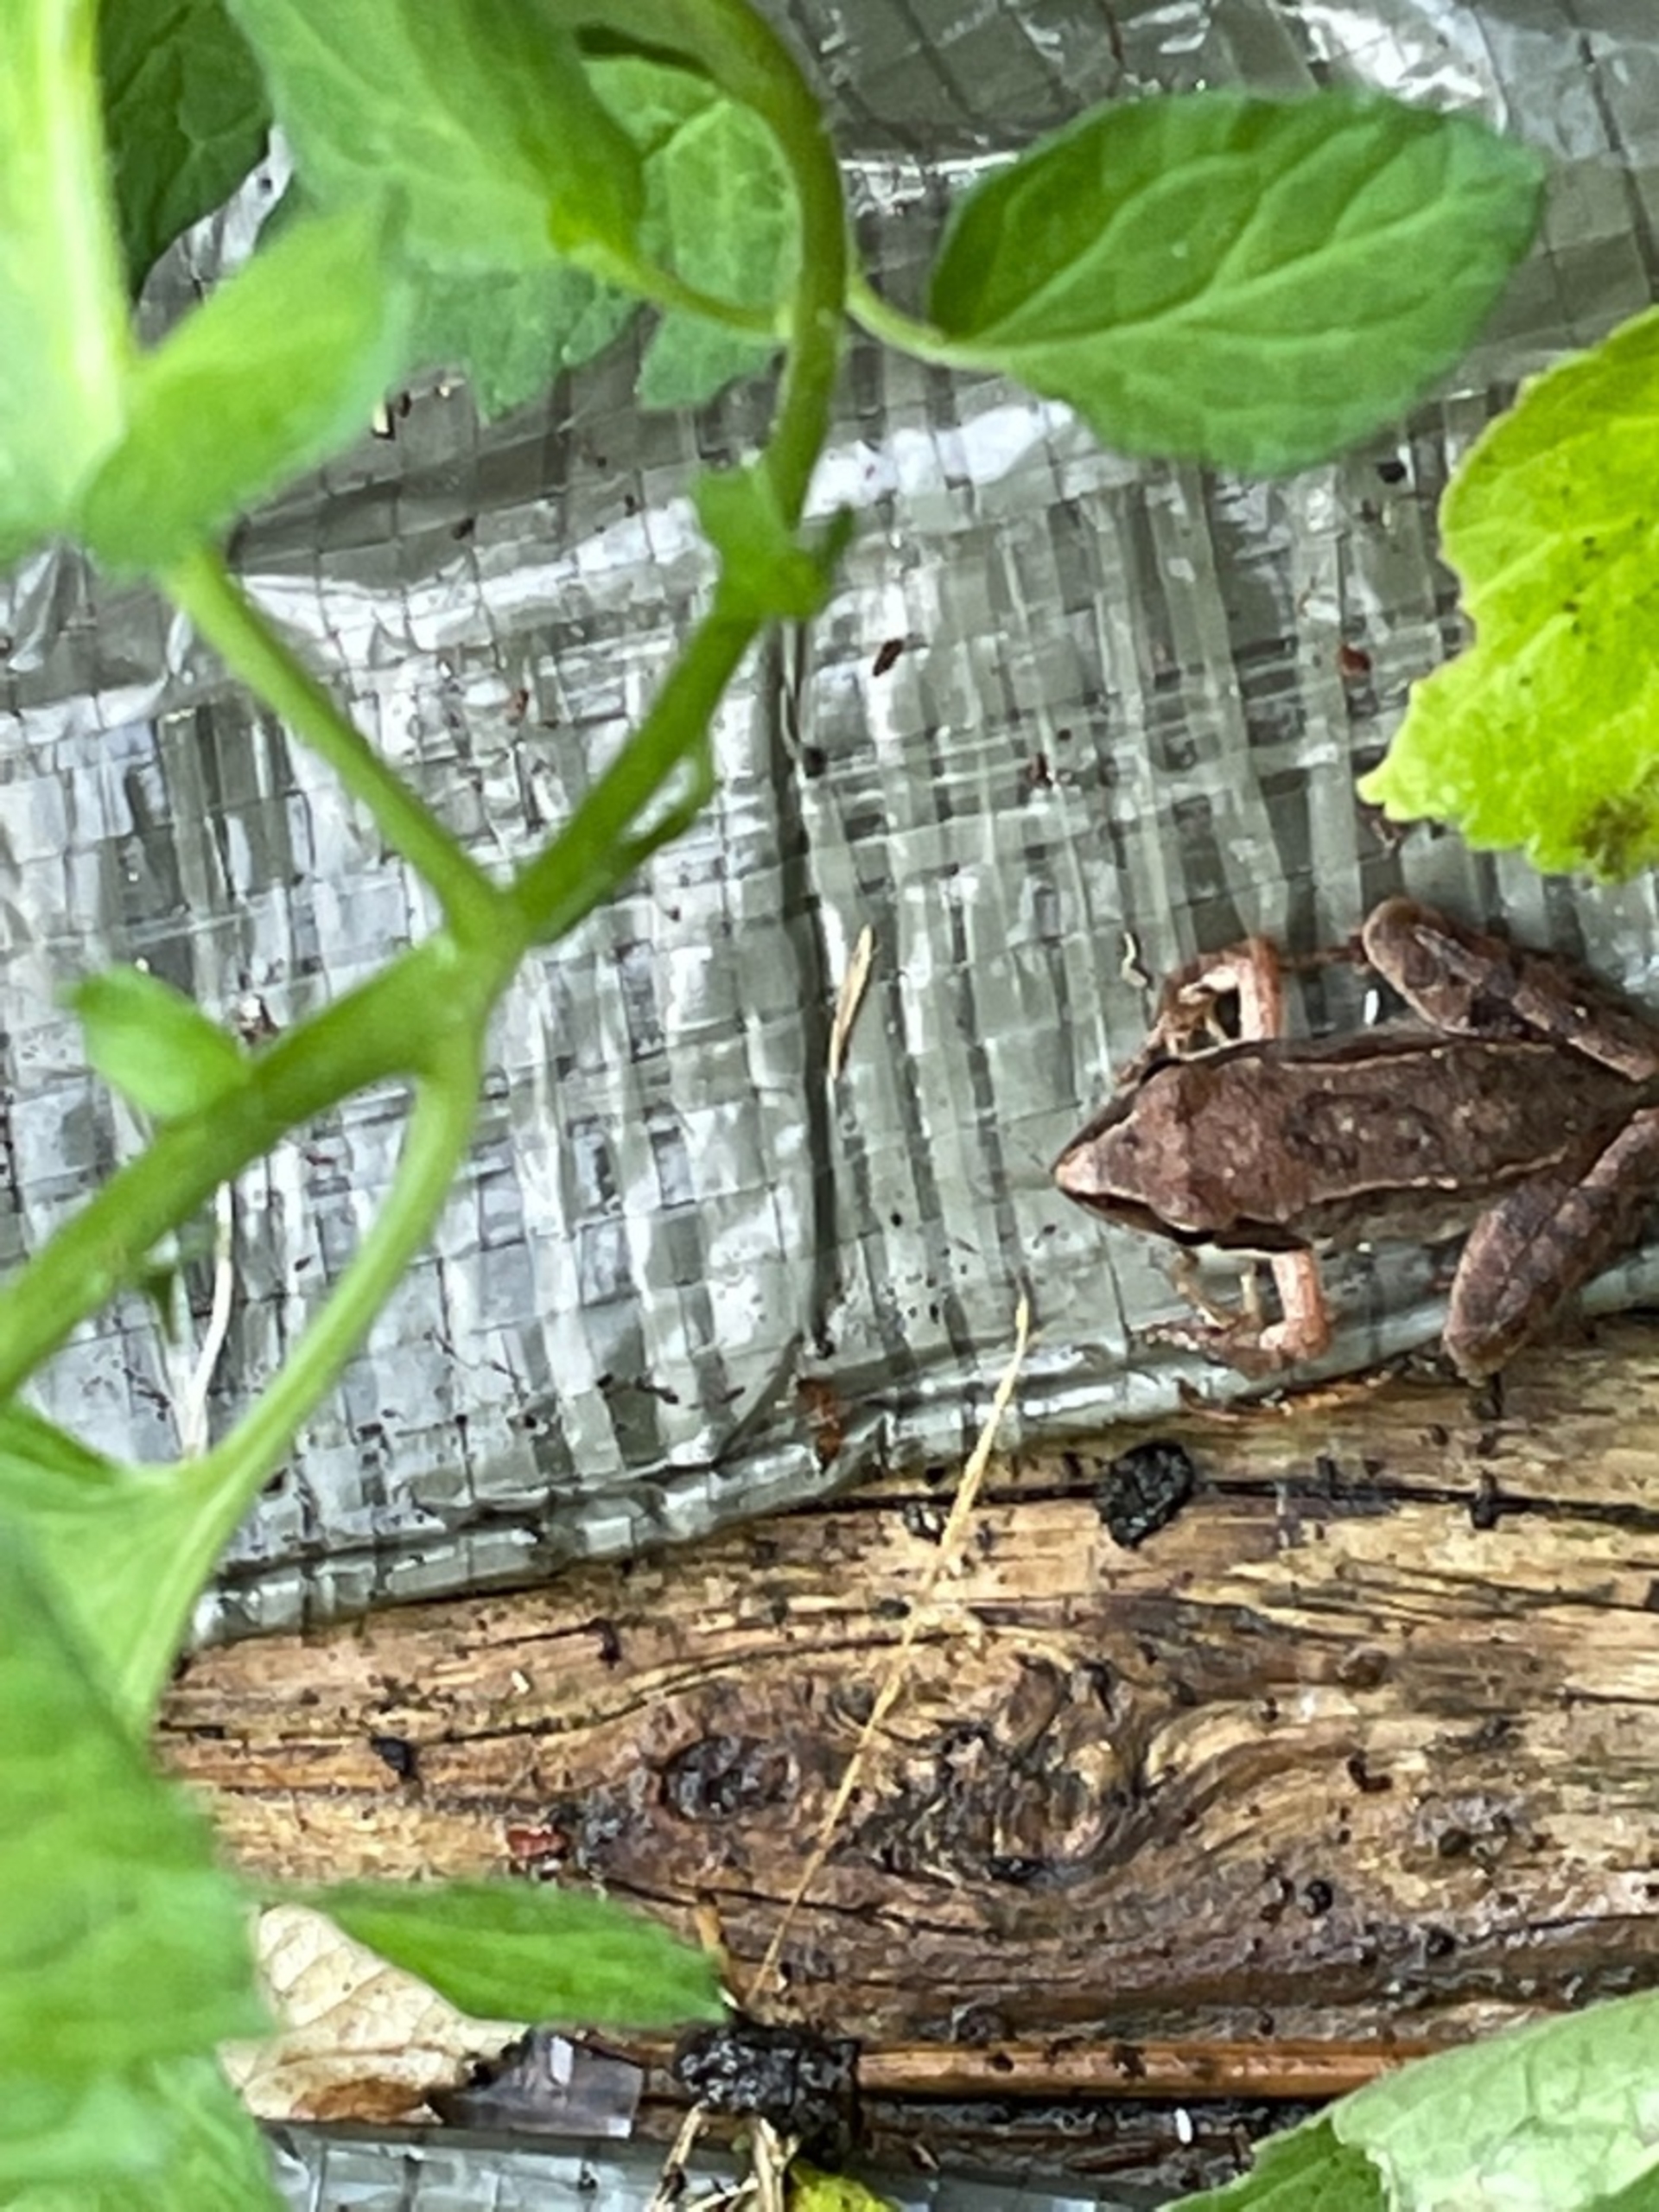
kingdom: Animalia
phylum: Chordata
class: Amphibia
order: Anura
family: Ranidae
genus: Rana
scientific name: Rana
